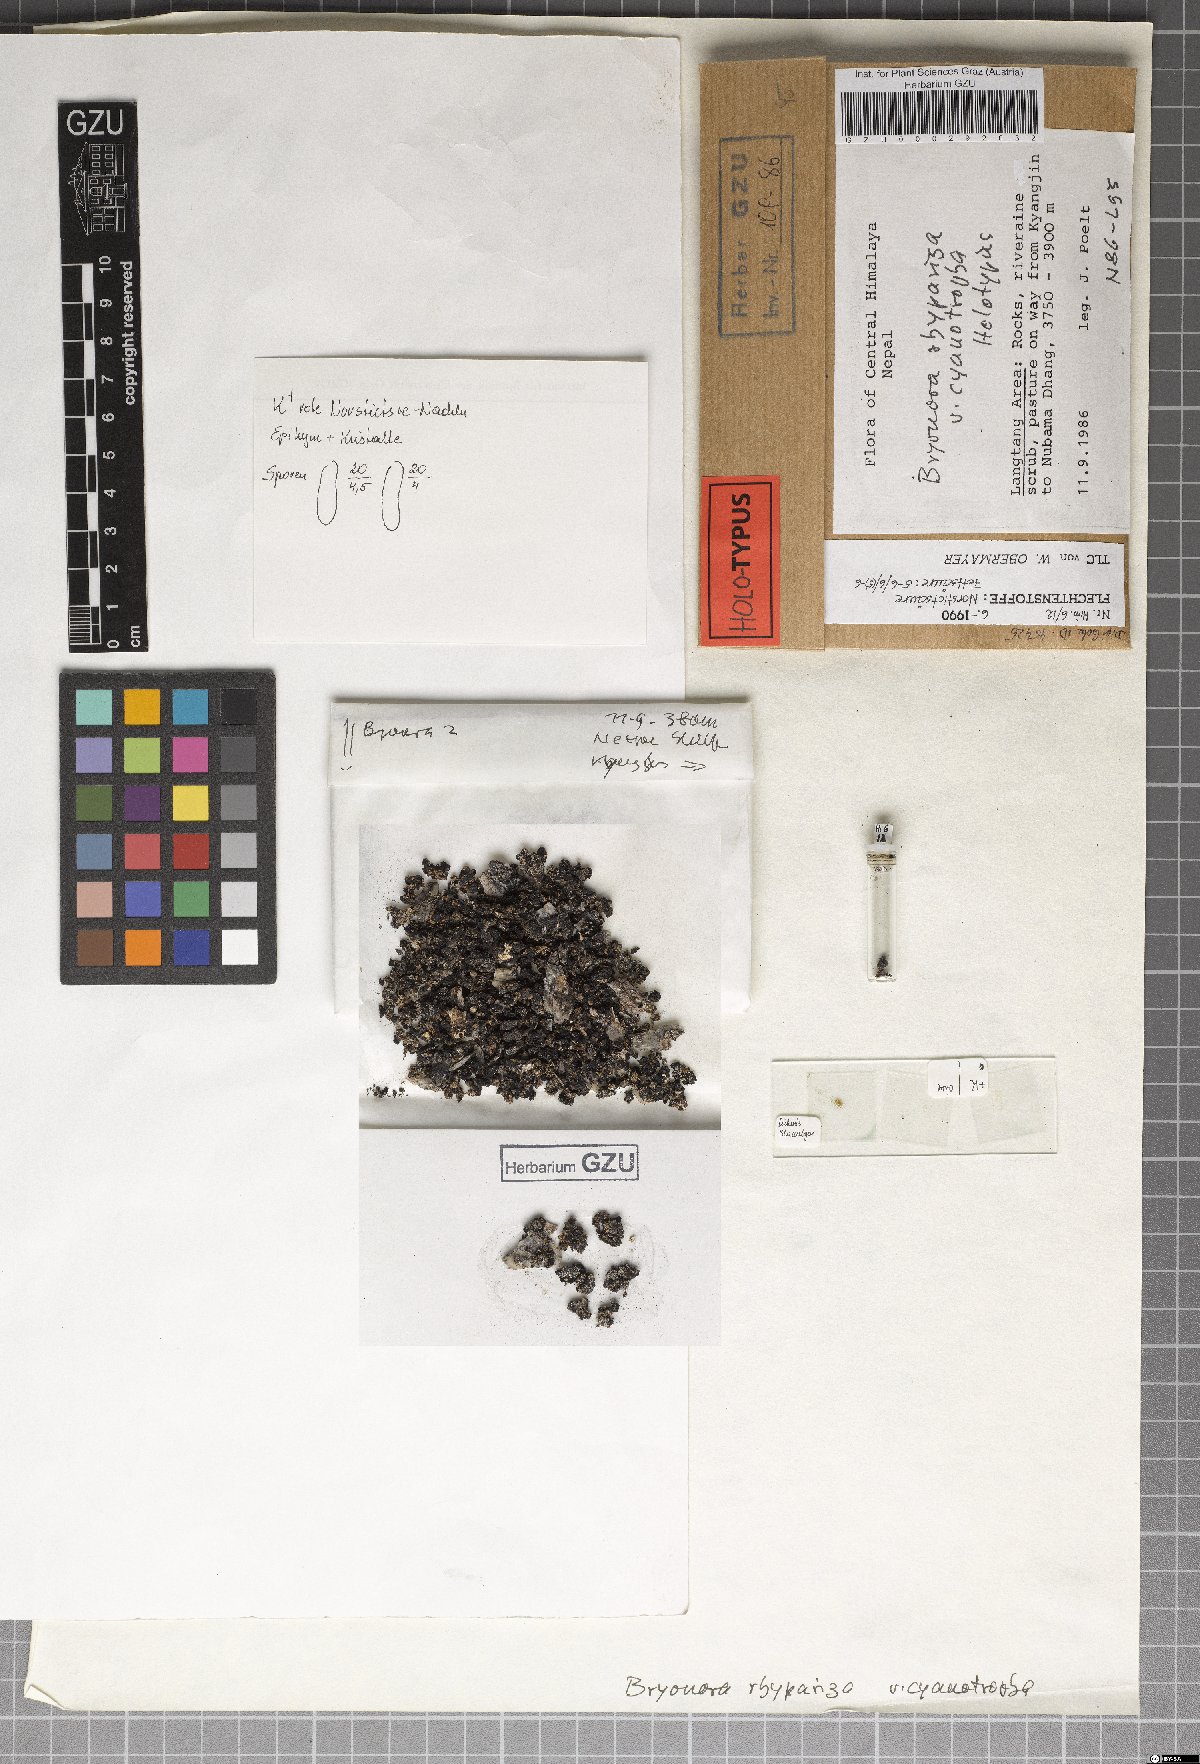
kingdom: Fungi
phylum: Ascomycota
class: Lecanoromycetes
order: Lecanorales
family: Lecanoraceae
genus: Bryodina
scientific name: Bryodina rhypariza
